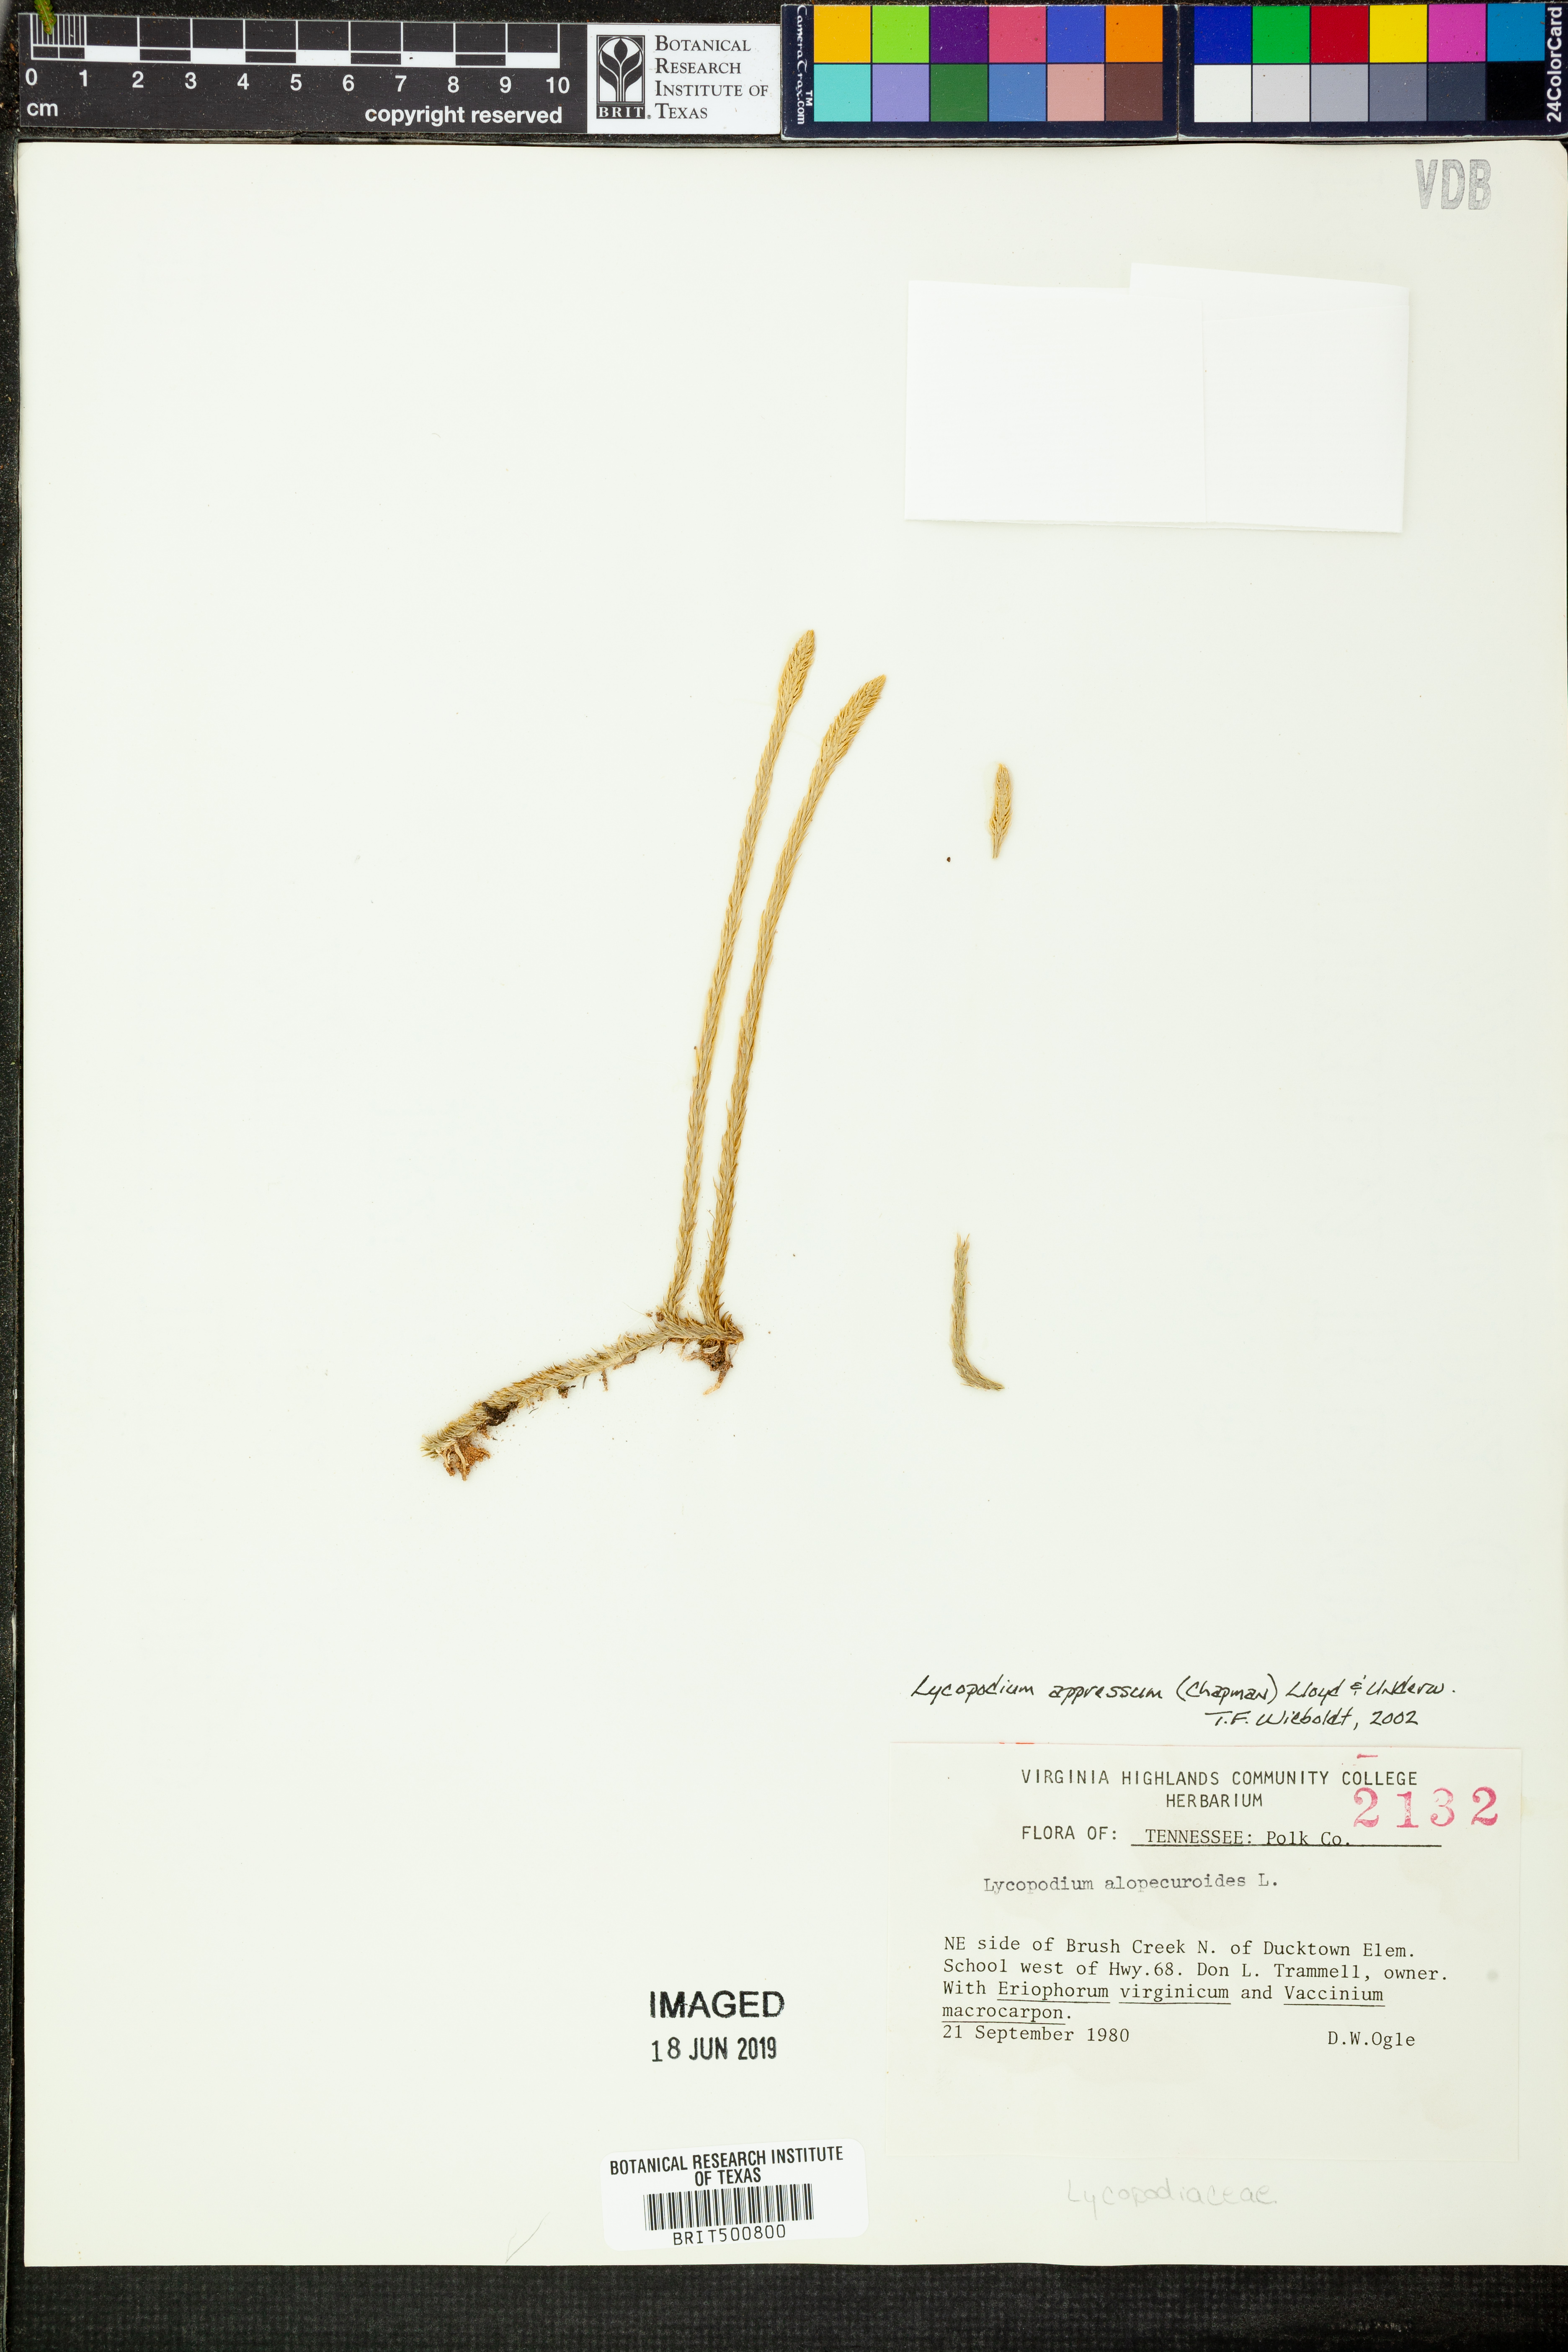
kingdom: Plantae
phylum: Tracheophyta
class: Lycopodiopsida
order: Lycopodiales
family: Lycopodiaceae
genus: Lycopodiella
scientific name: Lycopodiella appressa
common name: Appressed bog clubmoss
